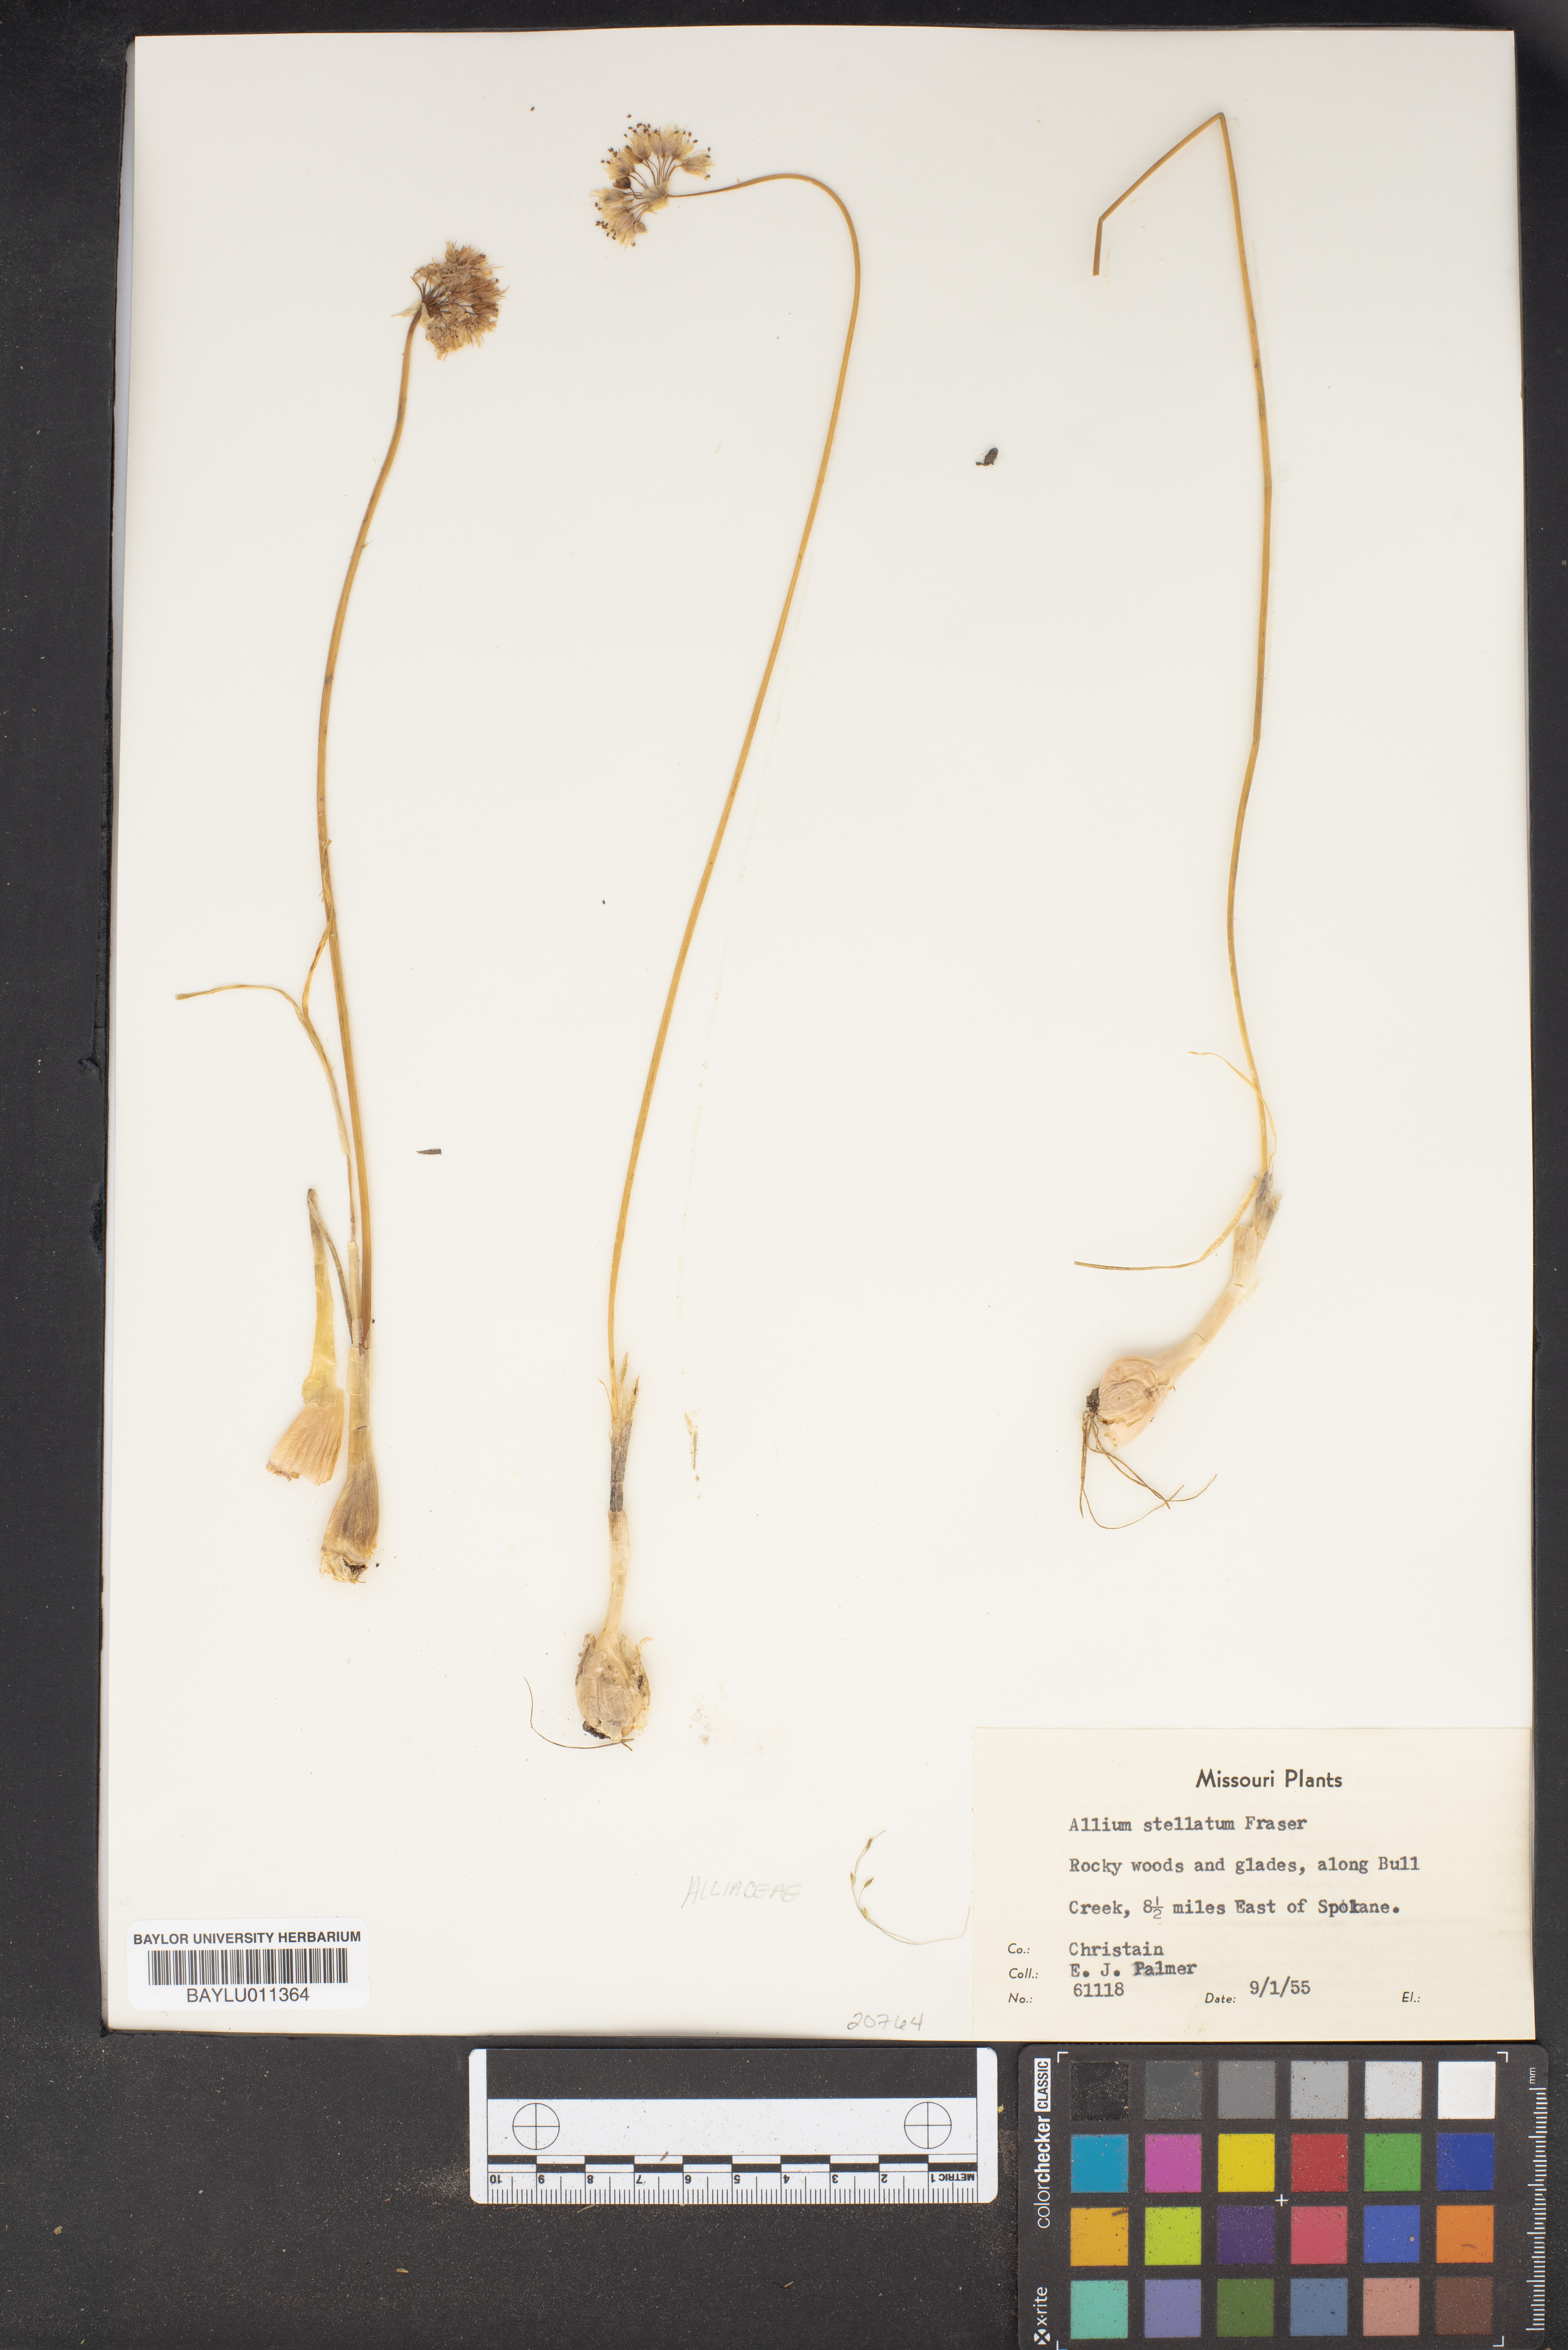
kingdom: Plantae
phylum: Tracheophyta
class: Liliopsida
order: Asparagales
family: Amaryllidaceae
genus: Allium
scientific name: Allium stellatum
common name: Autumn onion
